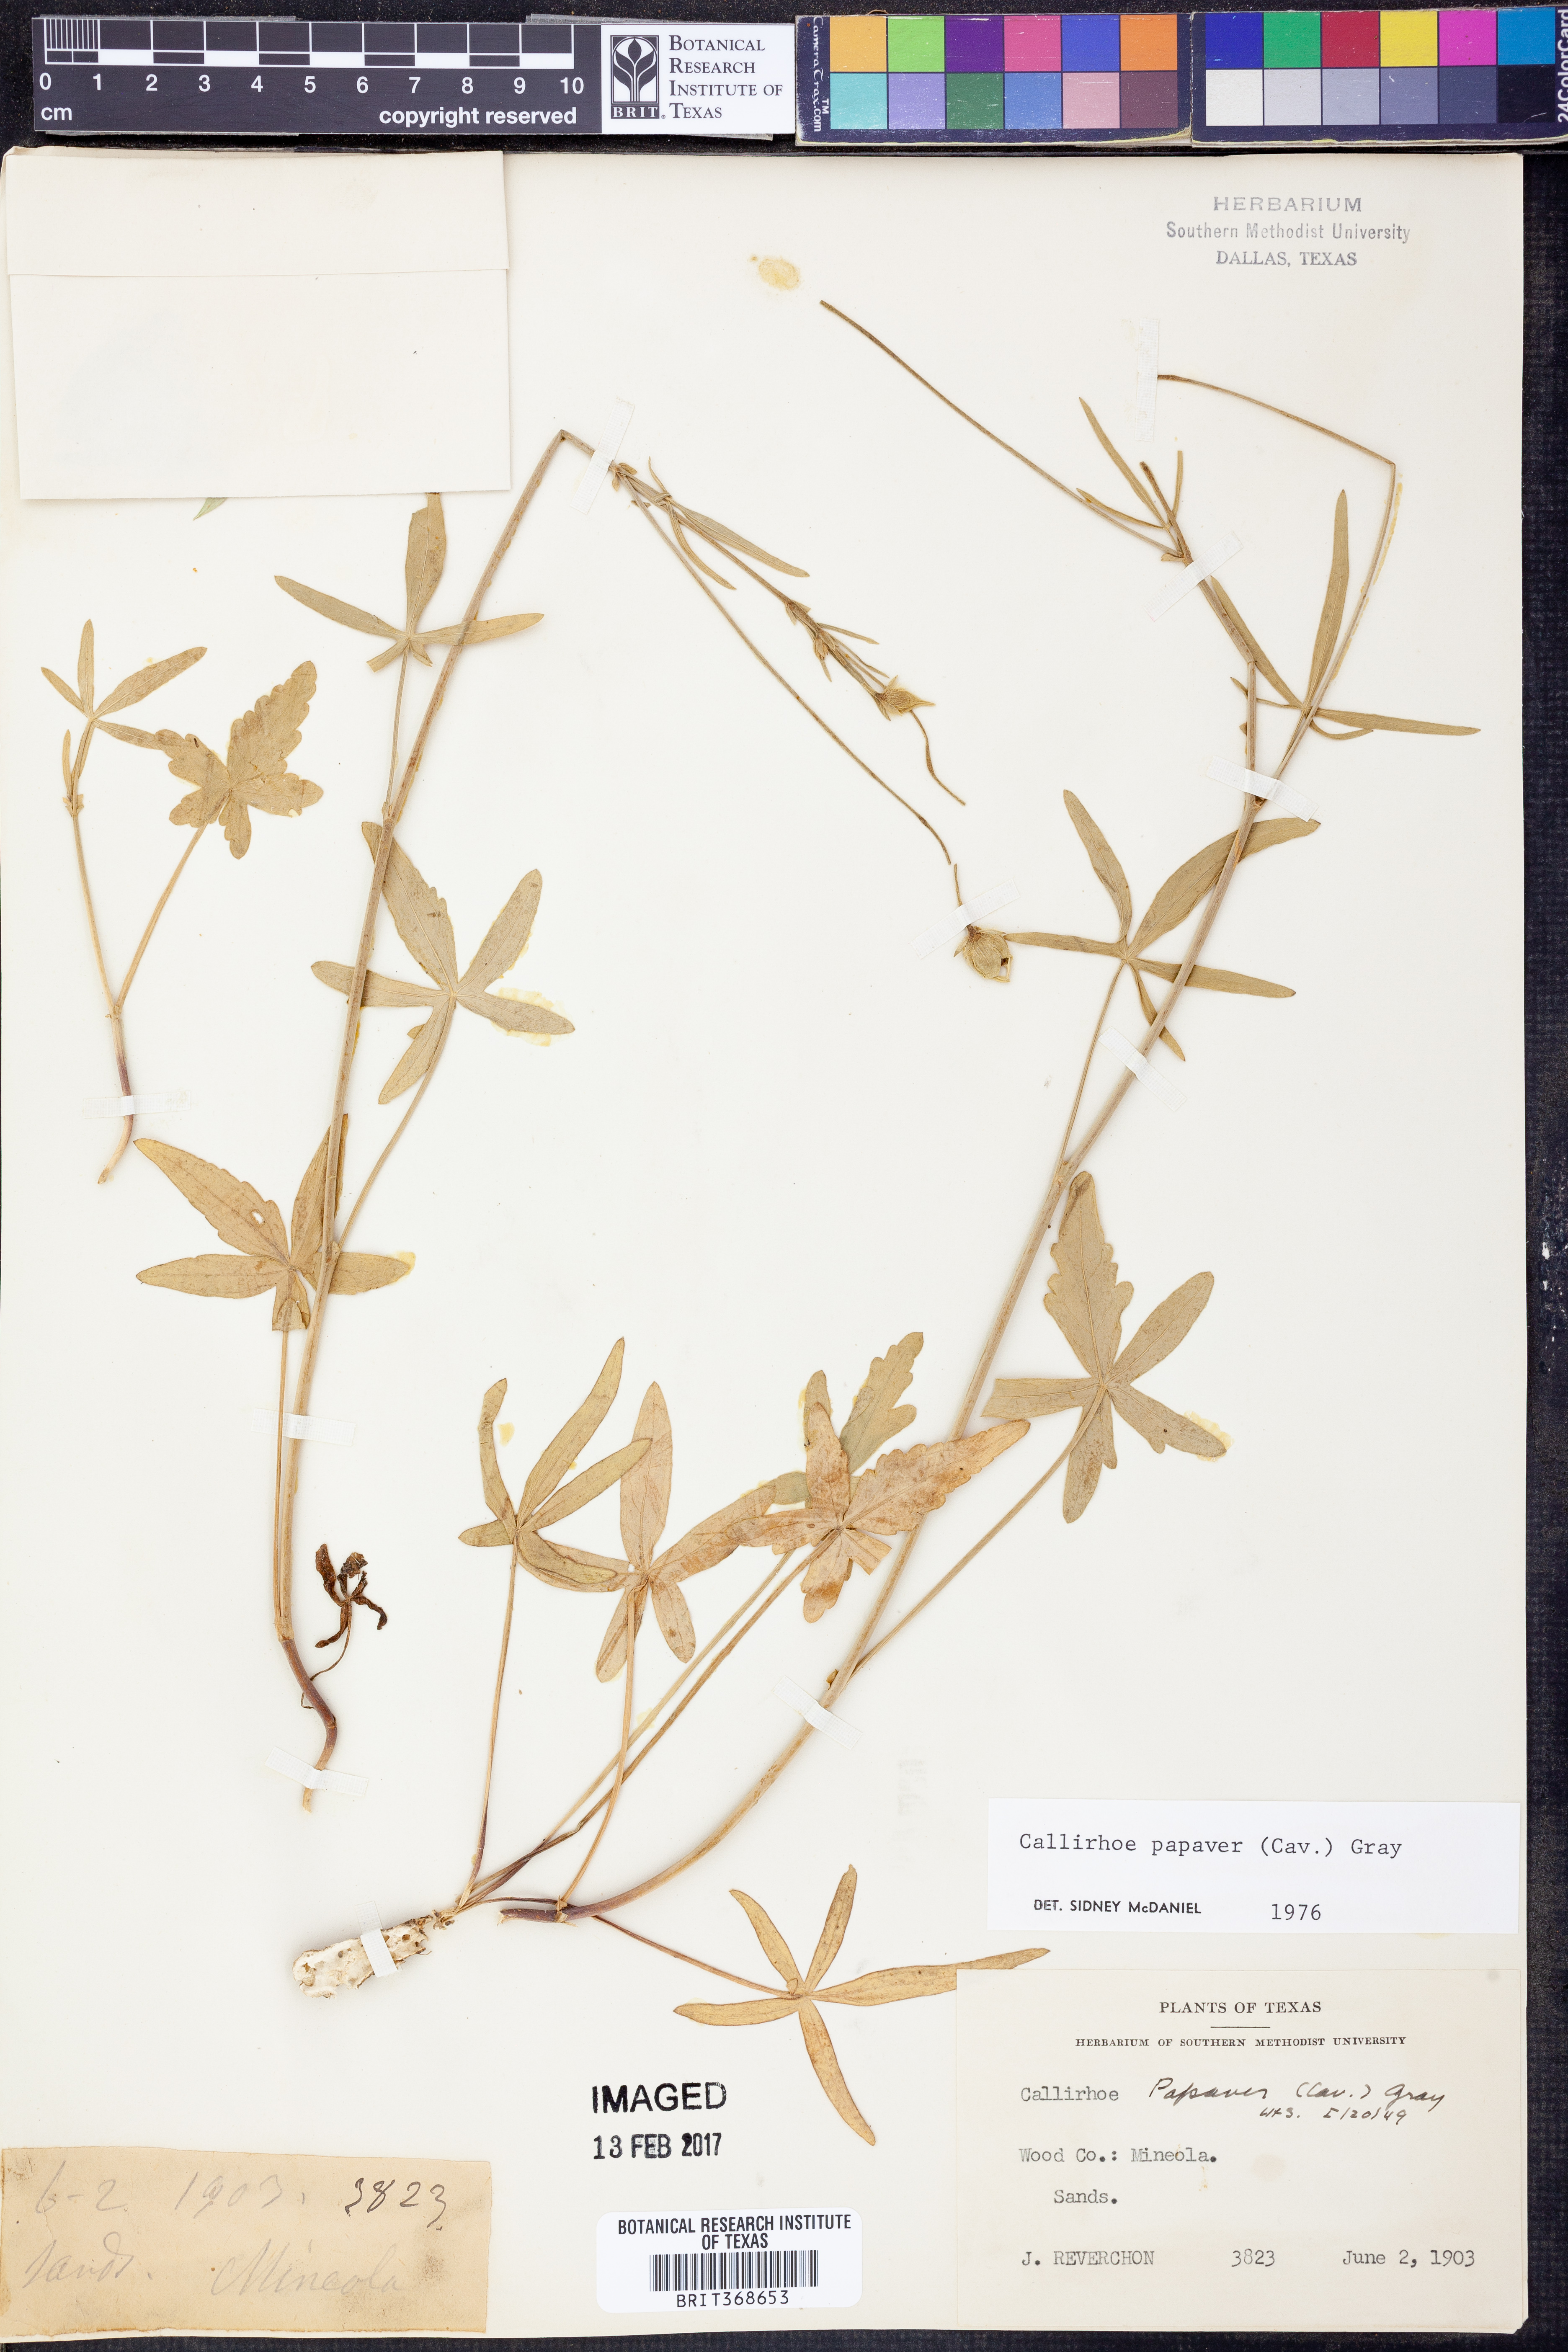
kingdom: Plantae
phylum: Tracheophyta
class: Magnoliopsida
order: Malvales
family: Malvaceae
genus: Callirhoe
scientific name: Callirhoe papaver
